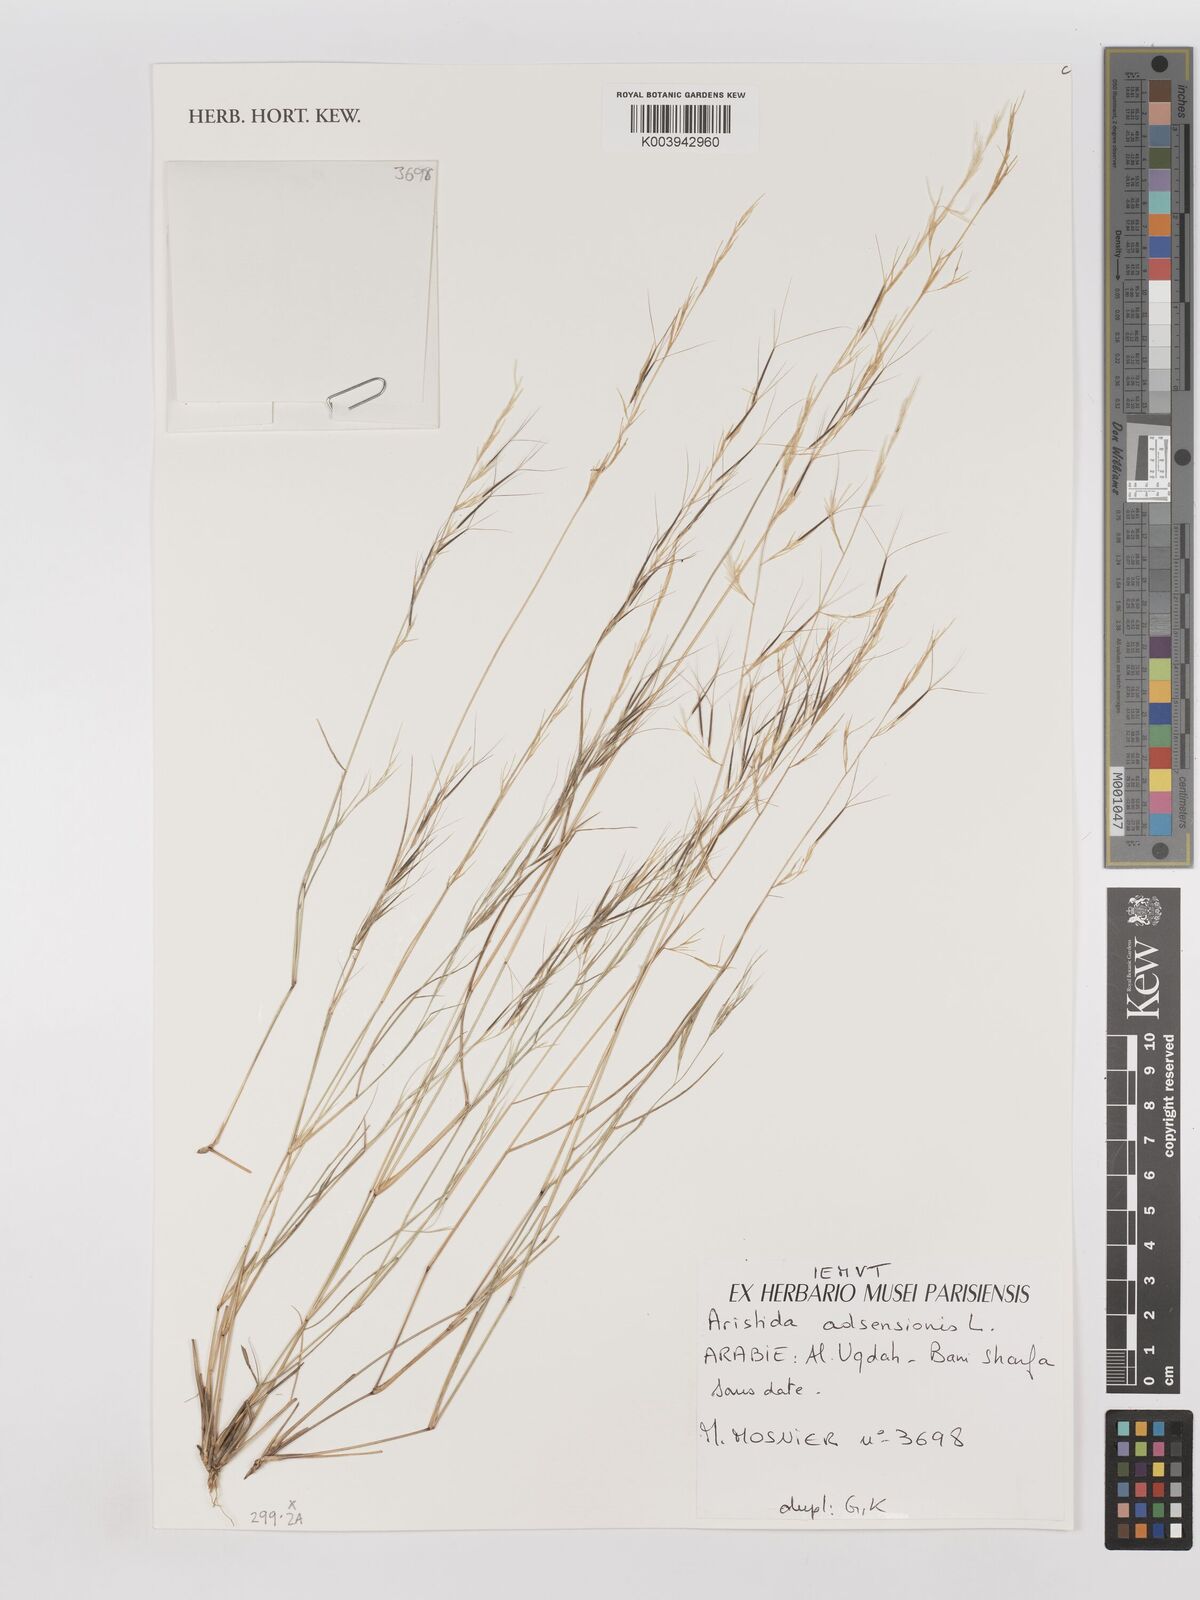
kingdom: Plantae
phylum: Tracheophyta
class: Liliopsida
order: Poales
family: Poaceae
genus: Aristida
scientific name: Aristida adscensionis
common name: Sixweeks threeawn
